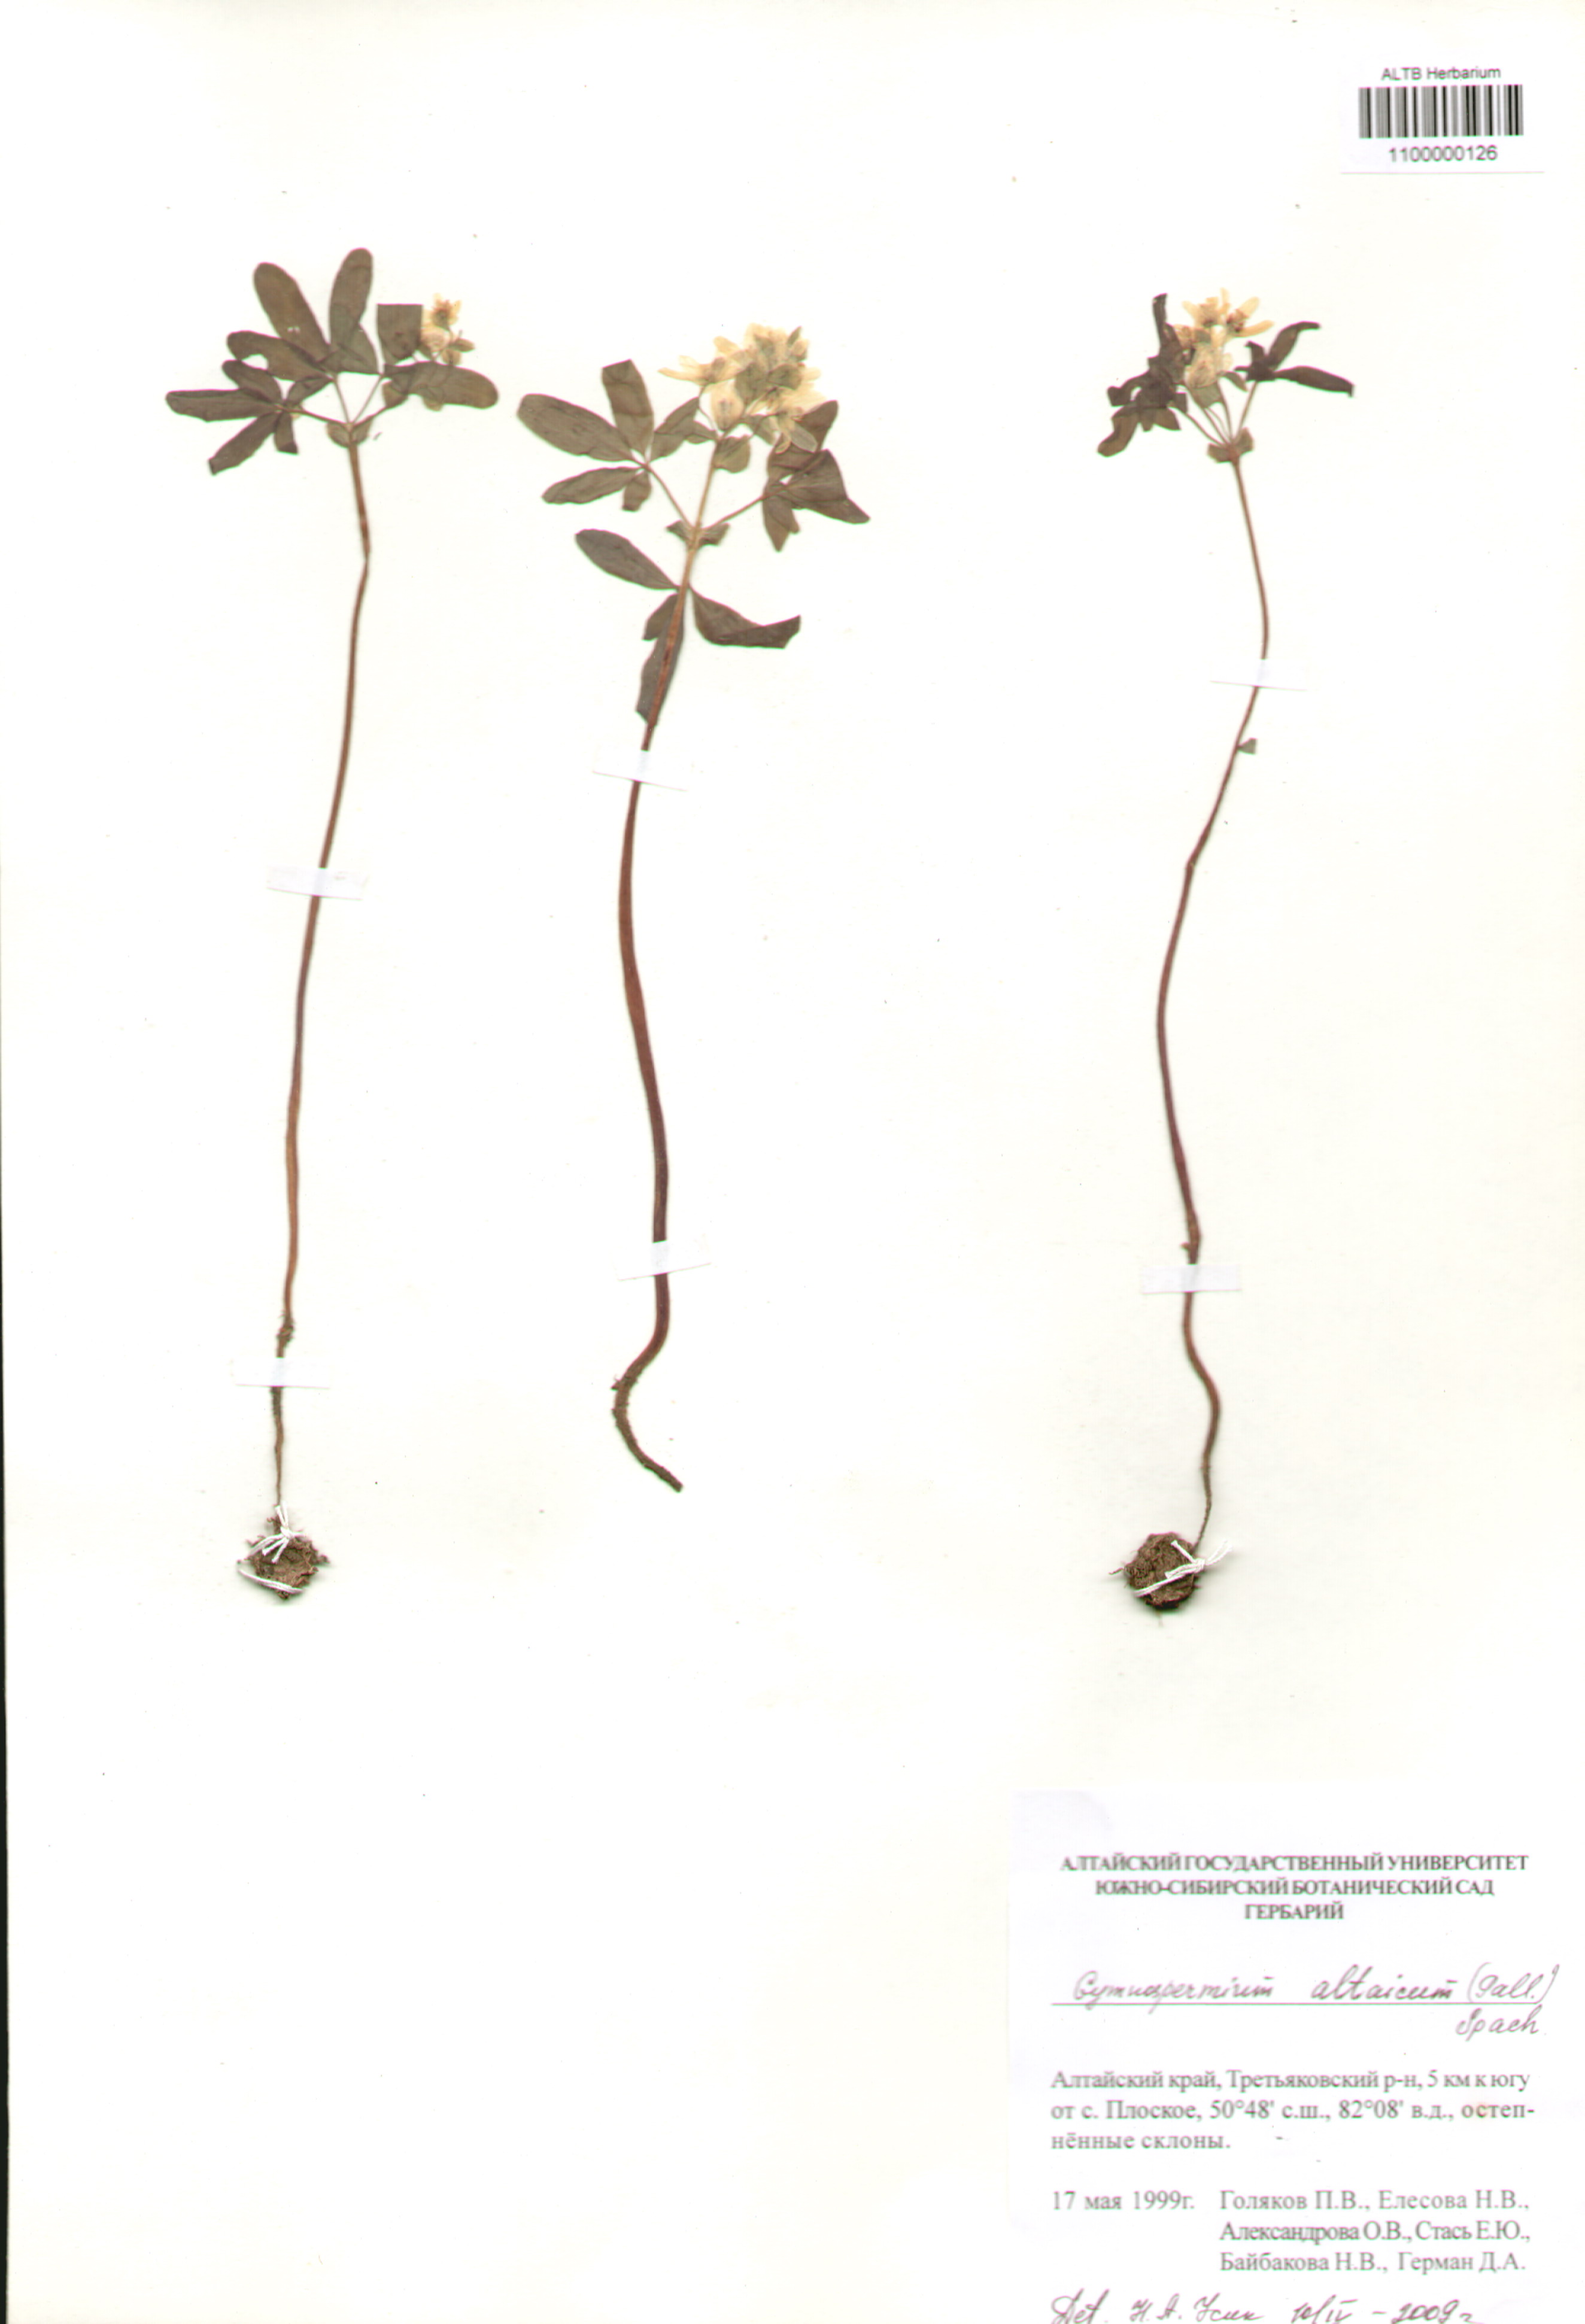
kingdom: Plantae
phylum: Tracheophyta
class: Magnoliopsida
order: Ranunculales
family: Berberidaceae
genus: Gymnospermium
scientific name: Gymnospermium altaicum
